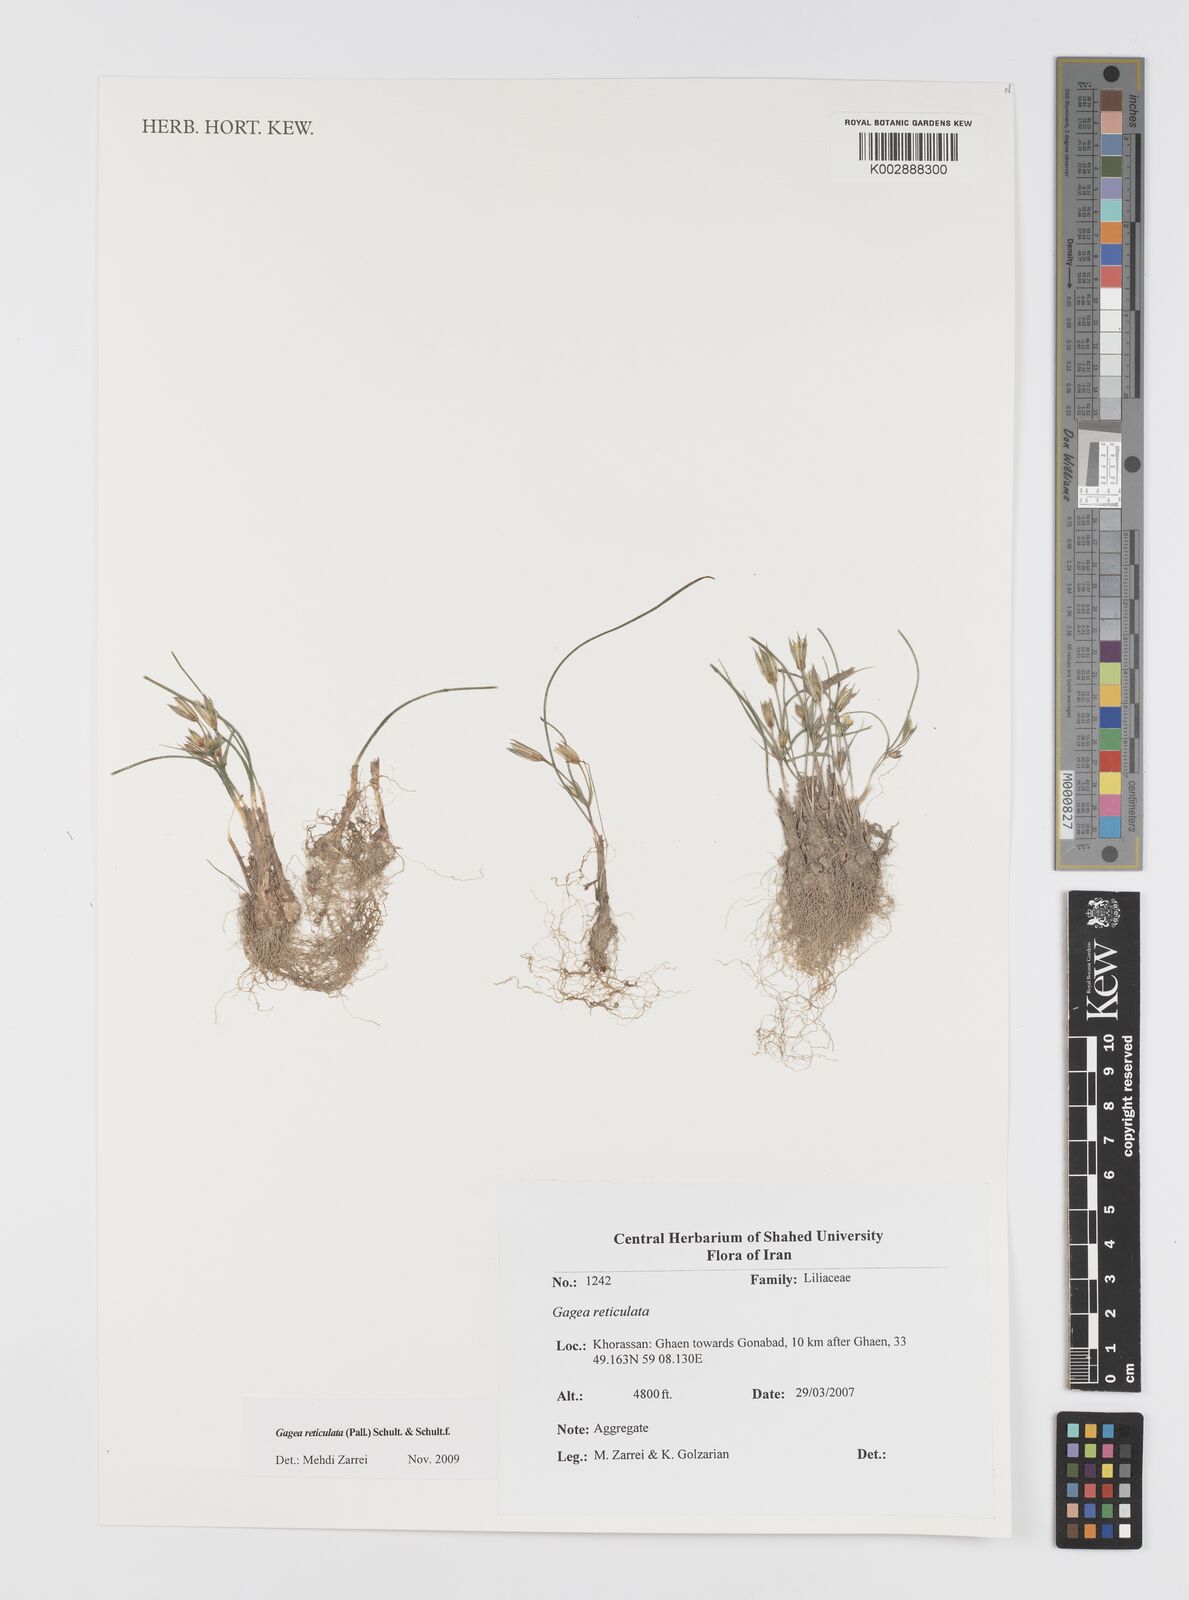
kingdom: Plantae
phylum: Tracheophyta
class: Liliopsida
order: Liliales
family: Liliaceae
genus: Gagea
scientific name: Gagea reticulata
